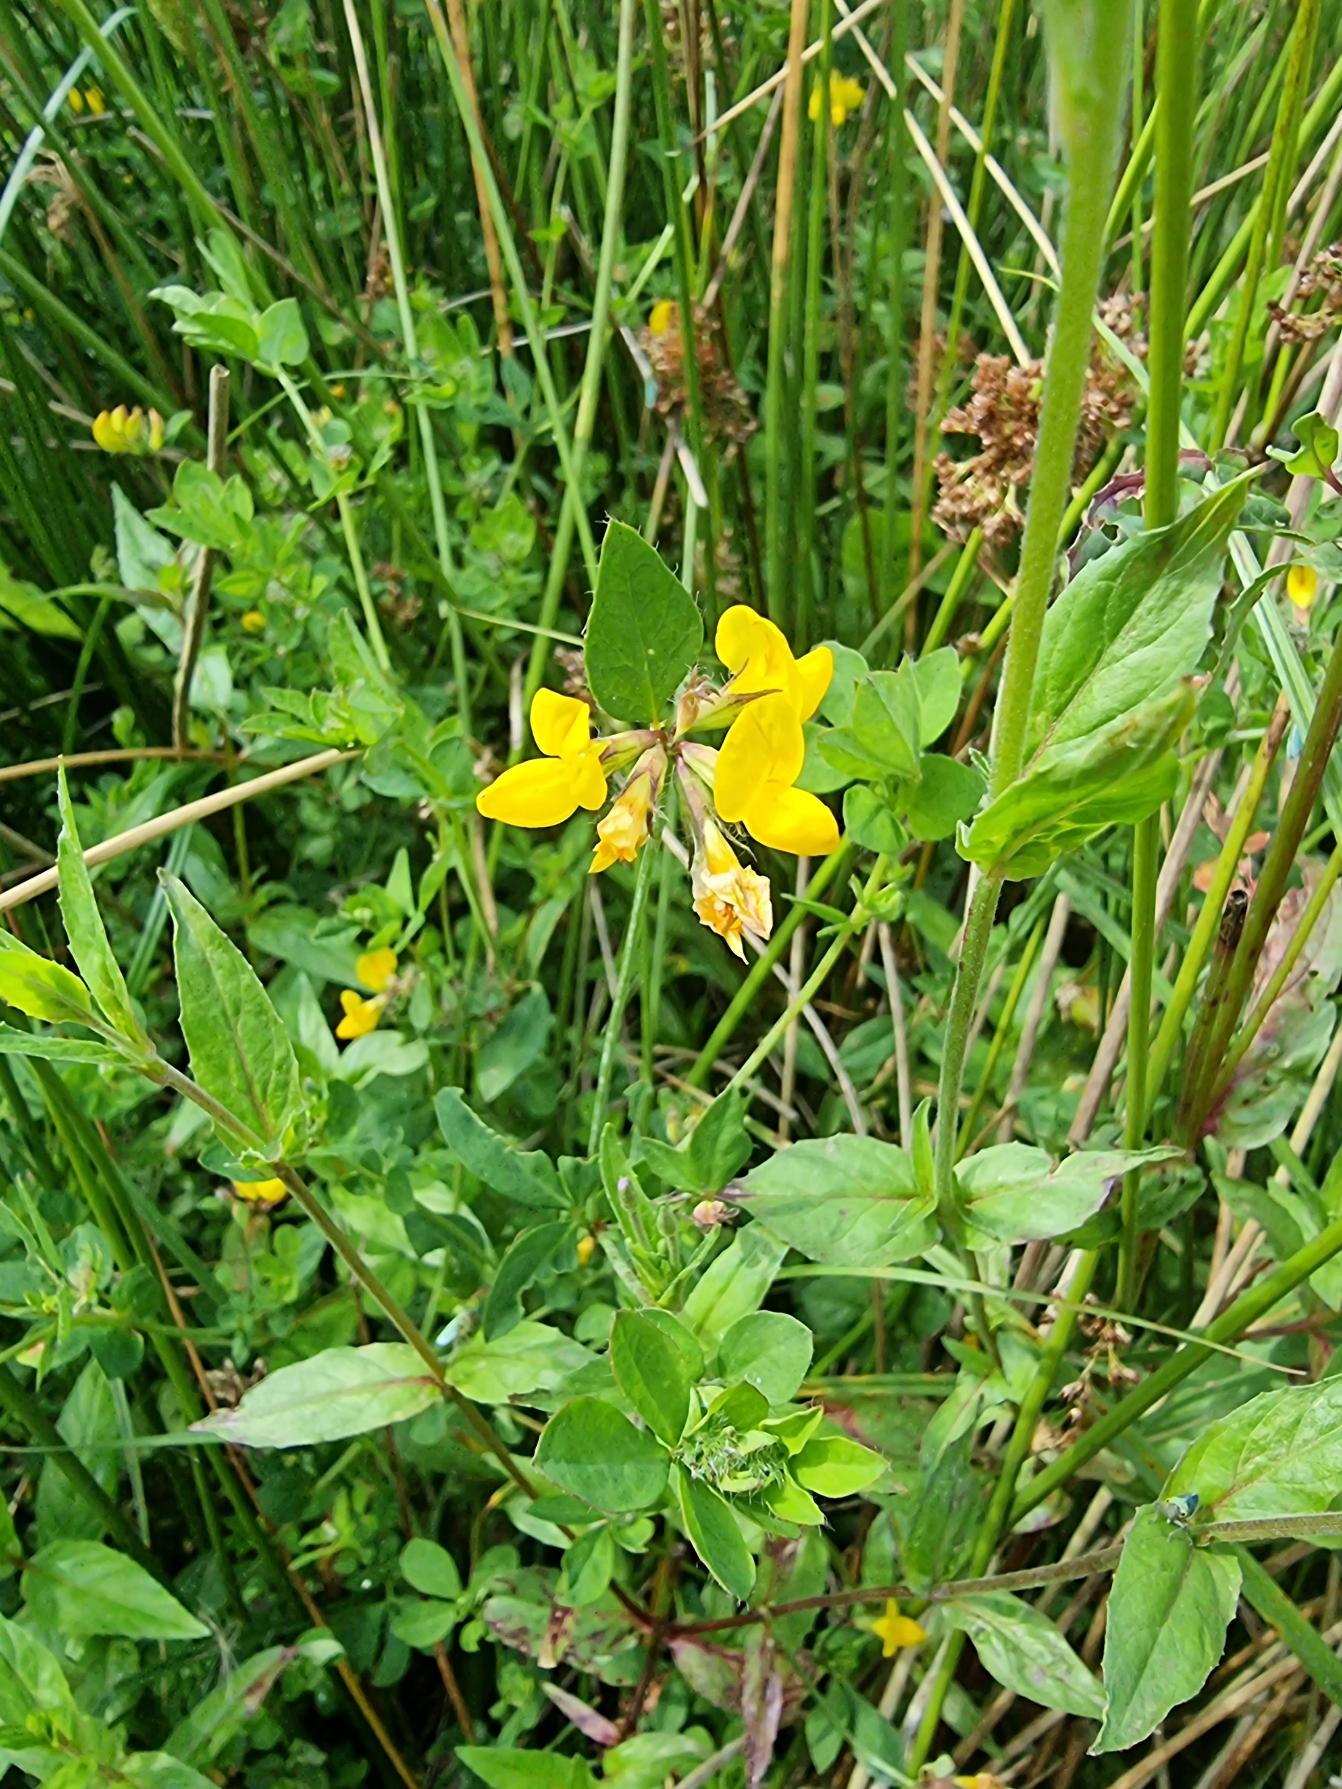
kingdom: Plantae
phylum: Tracheophyta
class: Magnoliopsida
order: Fabales
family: Fabaceae
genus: Lotus
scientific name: Lotus pedunculatus
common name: Sump-kællingetand
